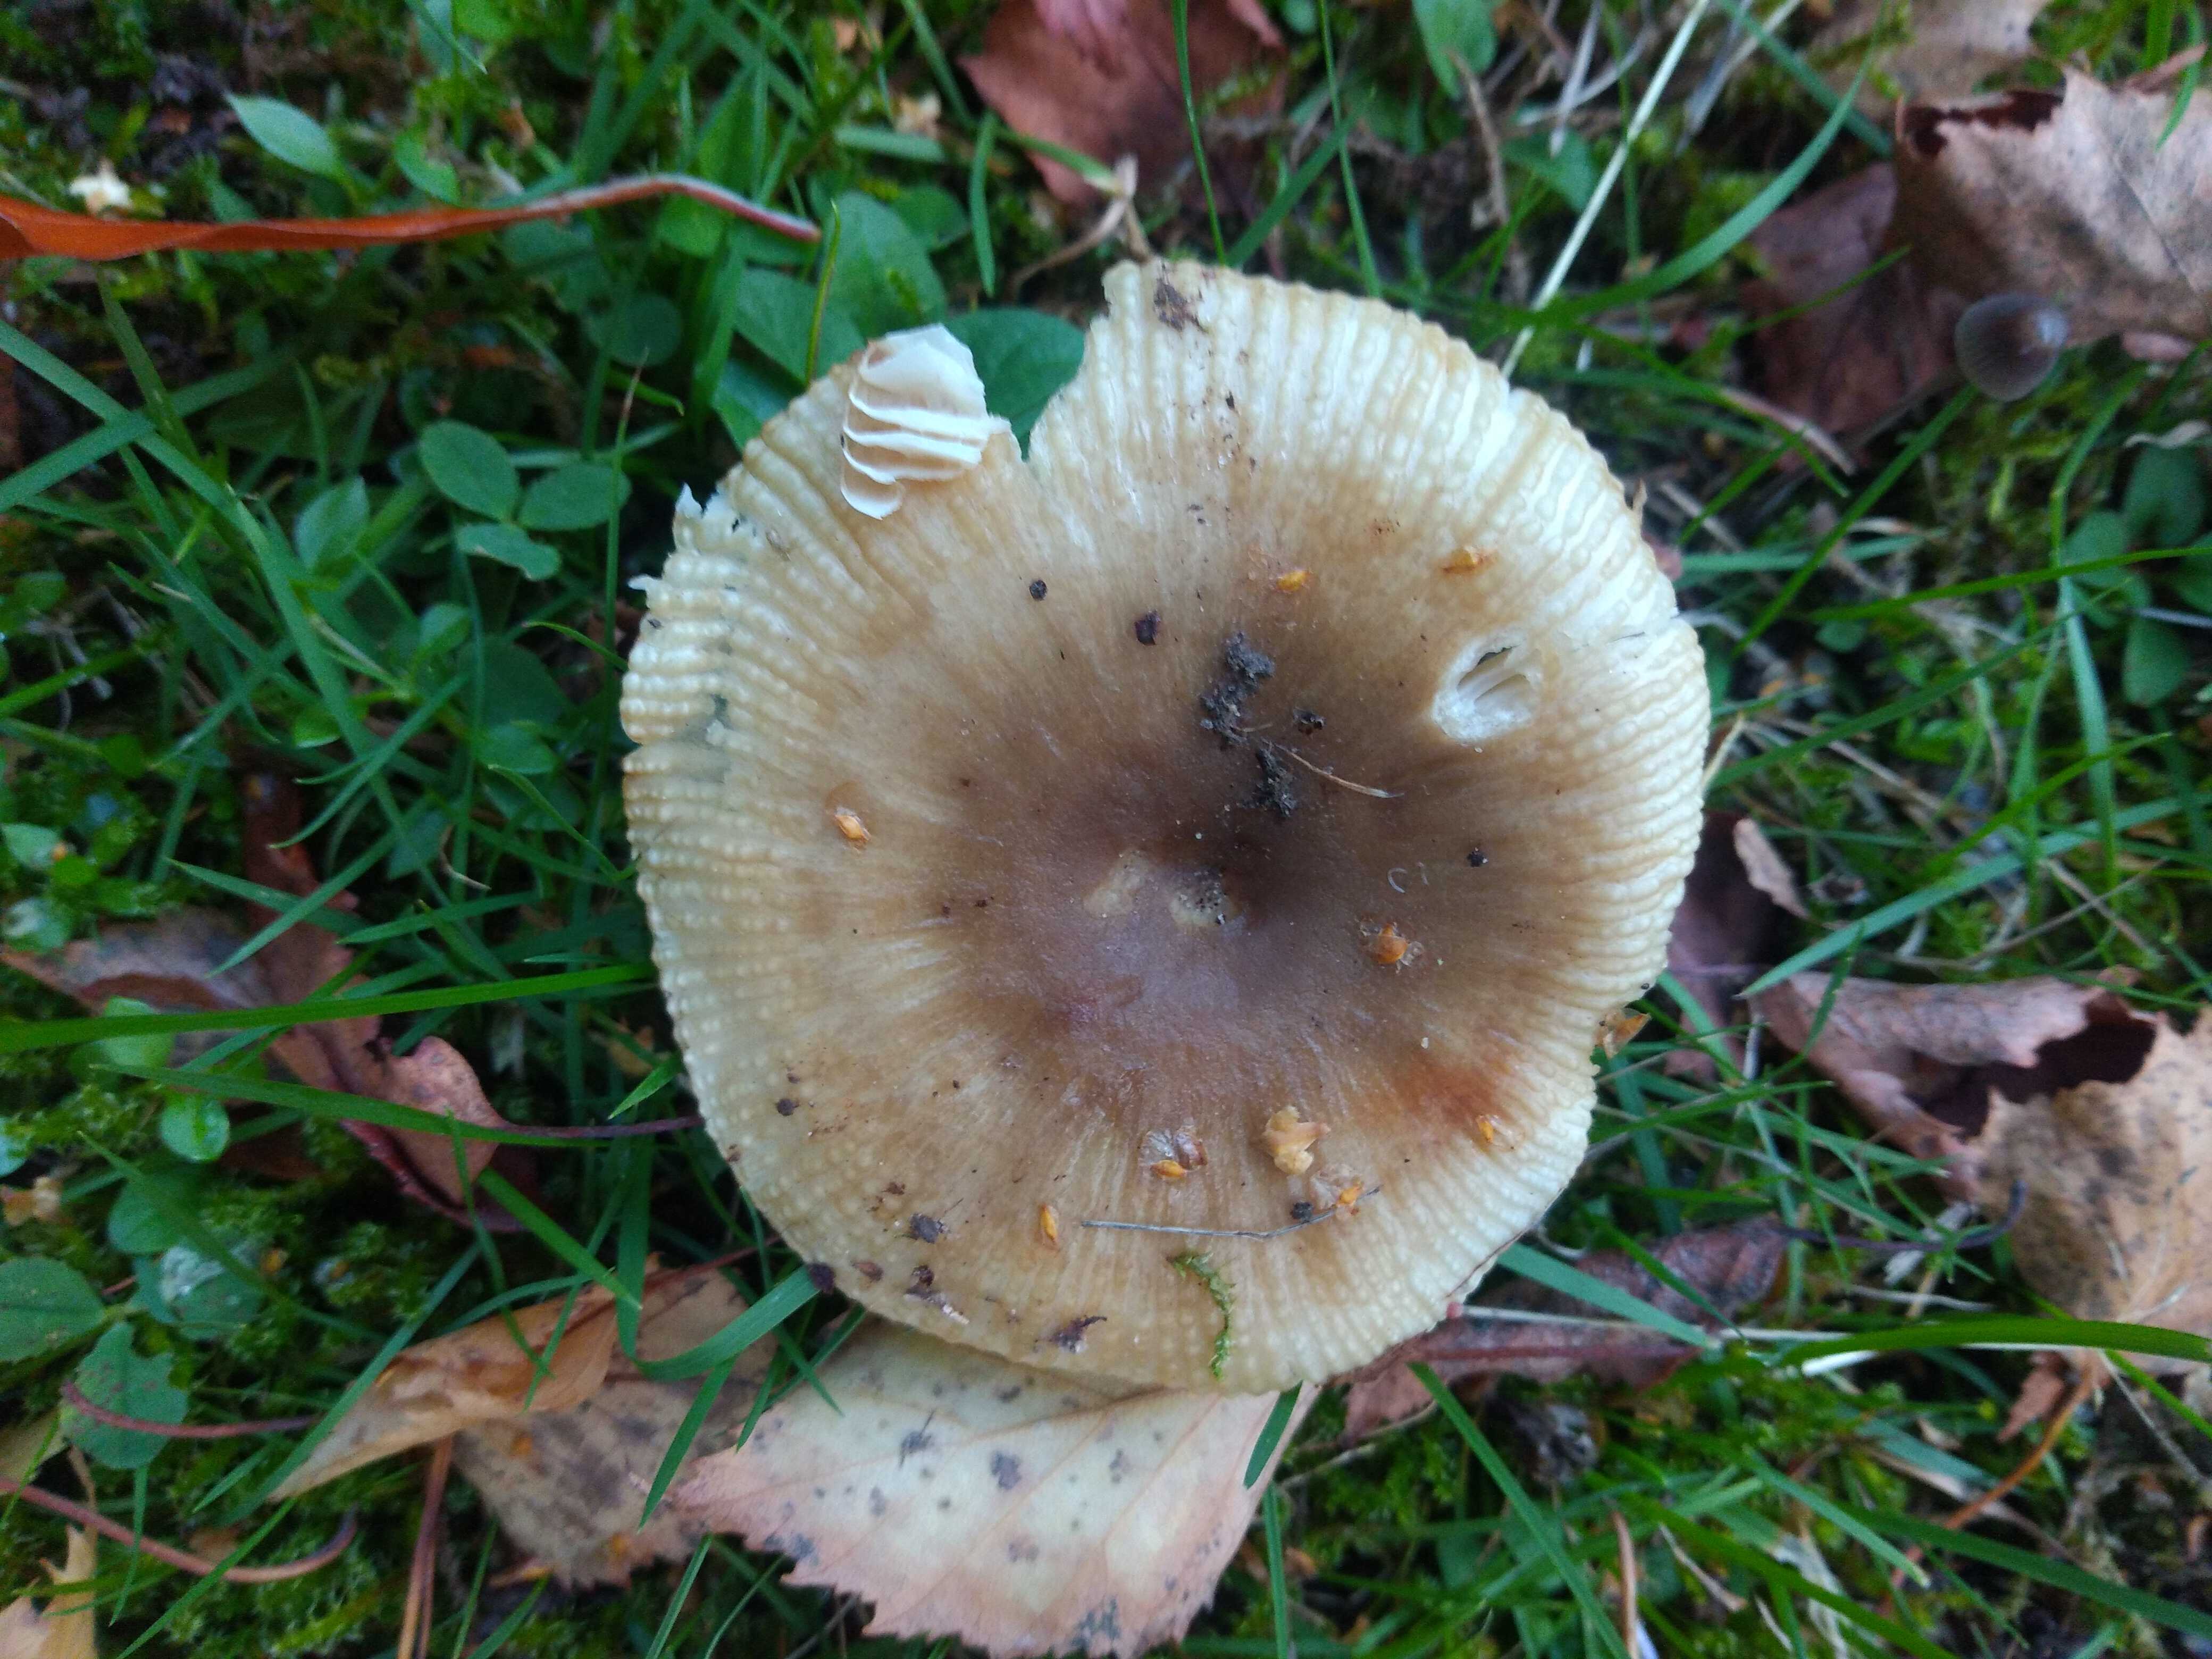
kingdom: Fungi
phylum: Basidiomycota
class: Agaricomycetes
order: Russulales
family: Russulaceae
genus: Russula
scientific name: Russula recondita
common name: mild kam-skørhat
